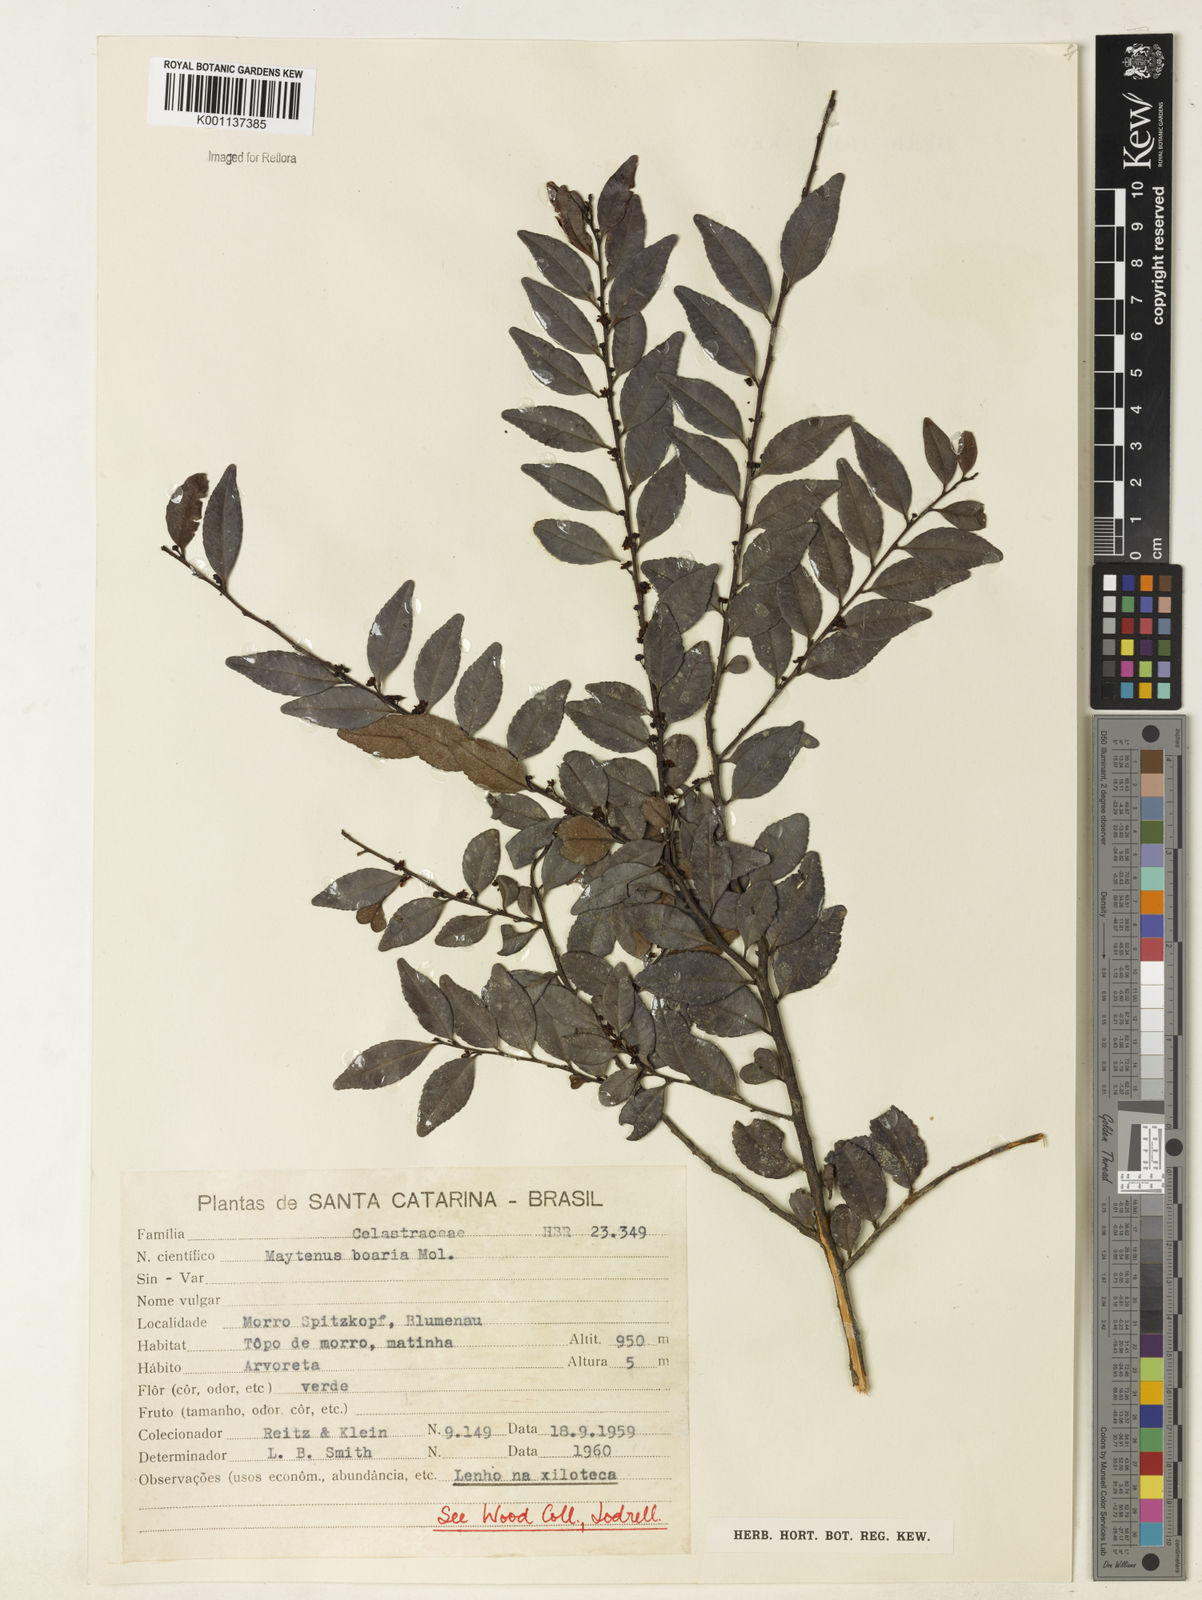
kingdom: Plantae
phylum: Tracheophyta
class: Magnoliopsida
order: Celastrales
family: Celastraceae
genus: Maytenus
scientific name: Maytenus boaria
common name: Mayten
